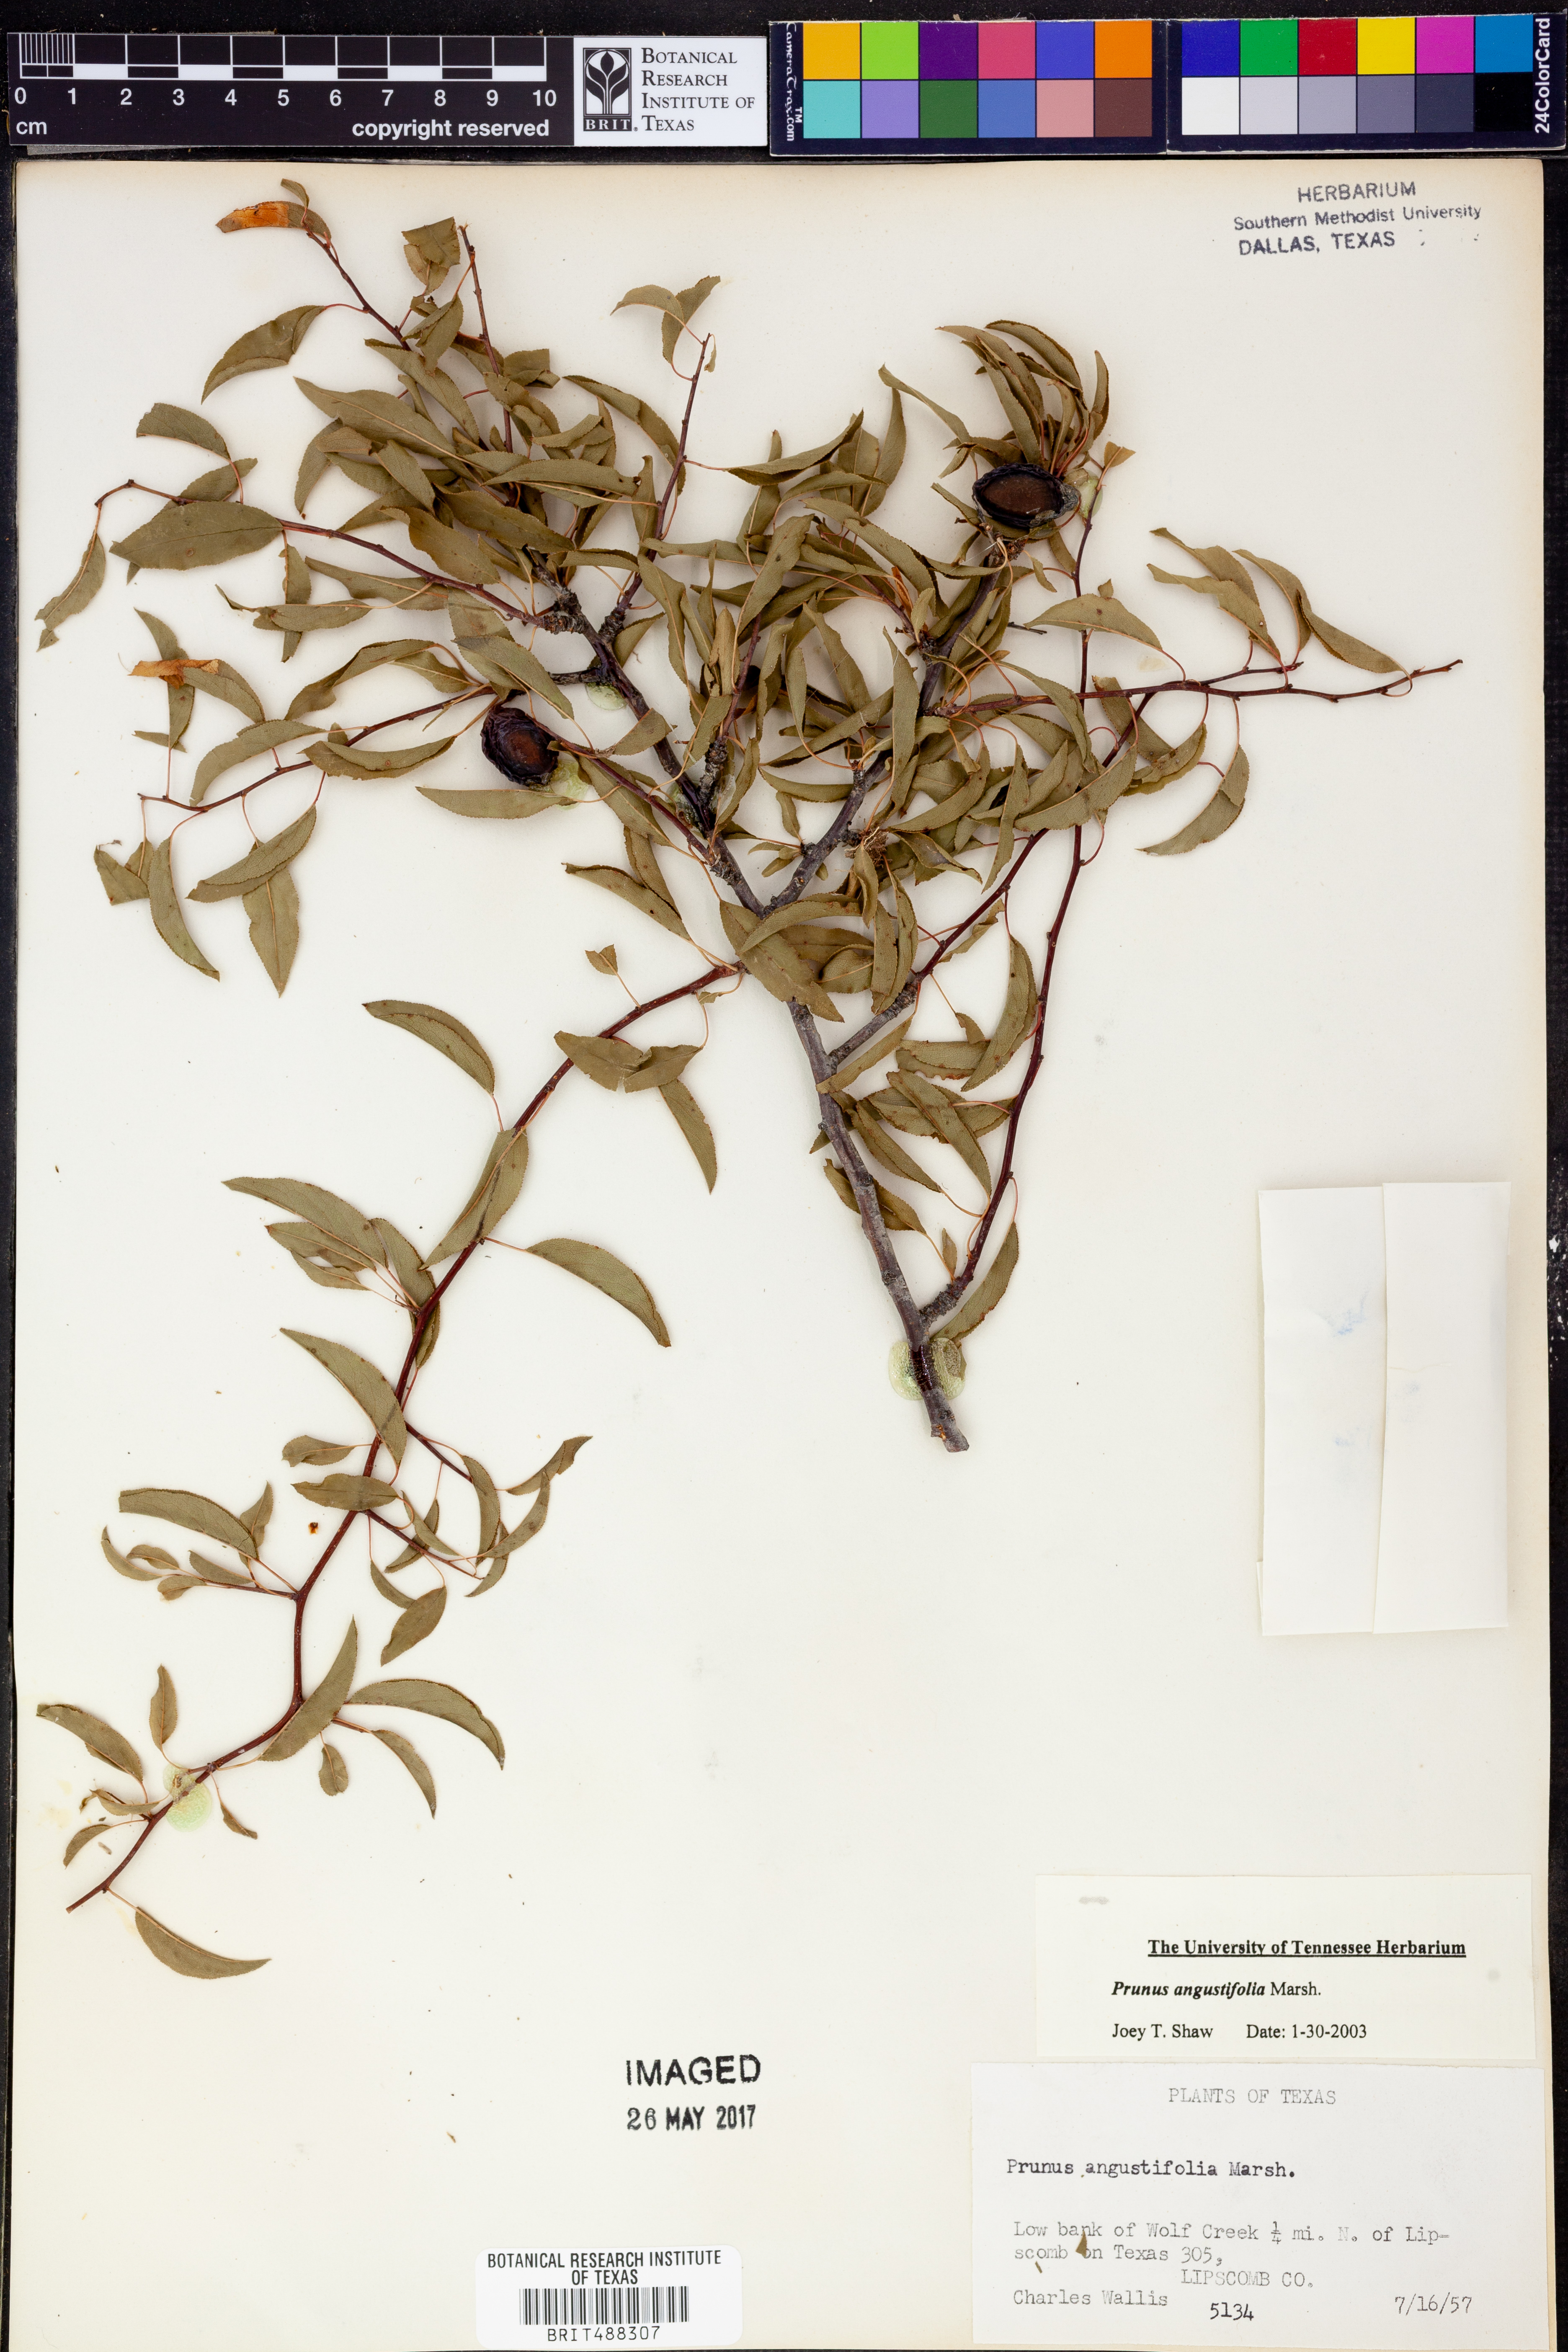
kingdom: Plantae
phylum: Tracheophyta
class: Magnoliopsida
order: Rosales
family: Rosaceae
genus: Prunus
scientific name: Prunus angustifolia
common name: Cherokee plum
